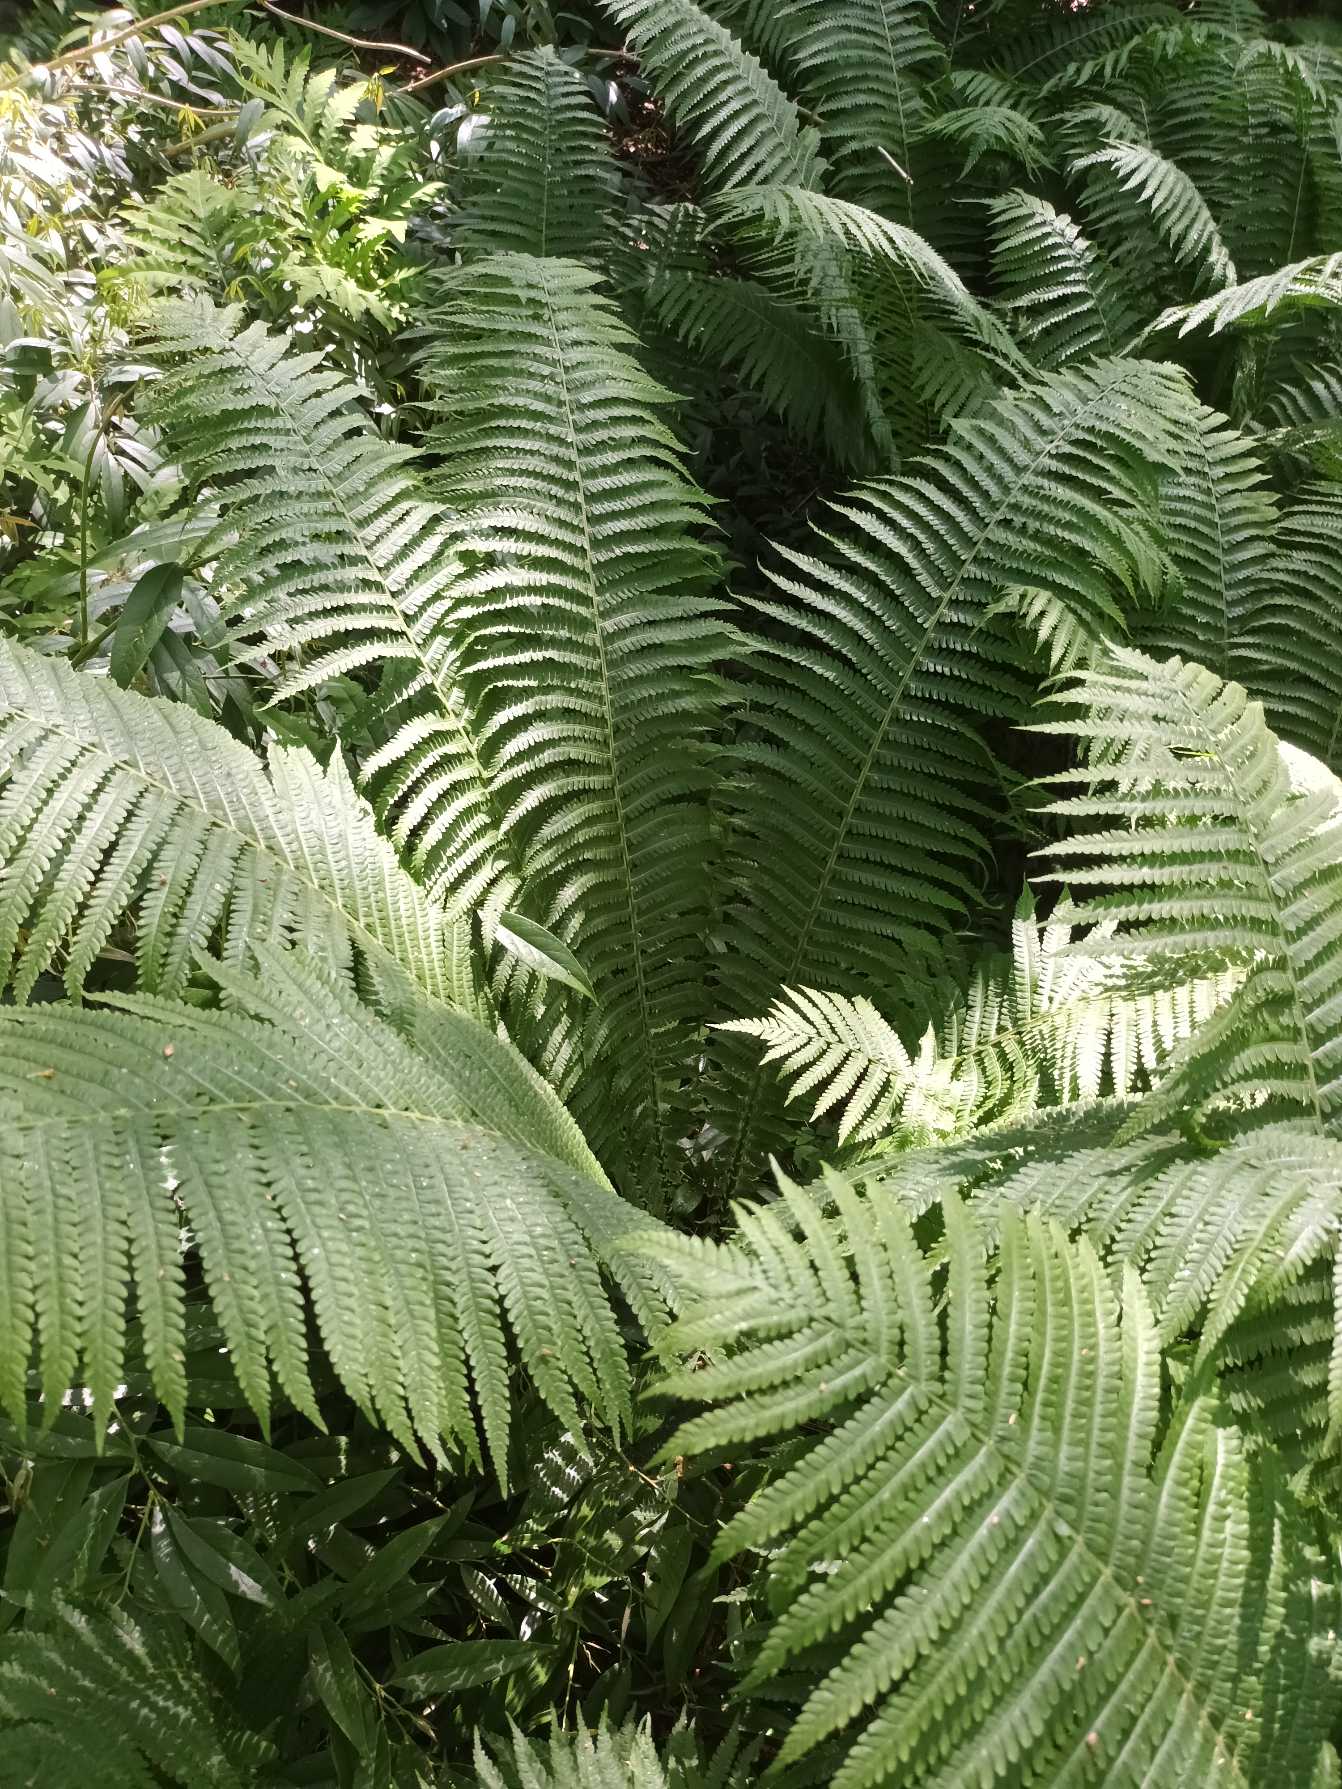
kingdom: Plantae
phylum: Tracheophyta
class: Polypodiopsida
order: Polypodiales
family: Onocleaceae
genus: Matteuccia
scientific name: Matteuccia struthiopteris
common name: Strudsvinge
